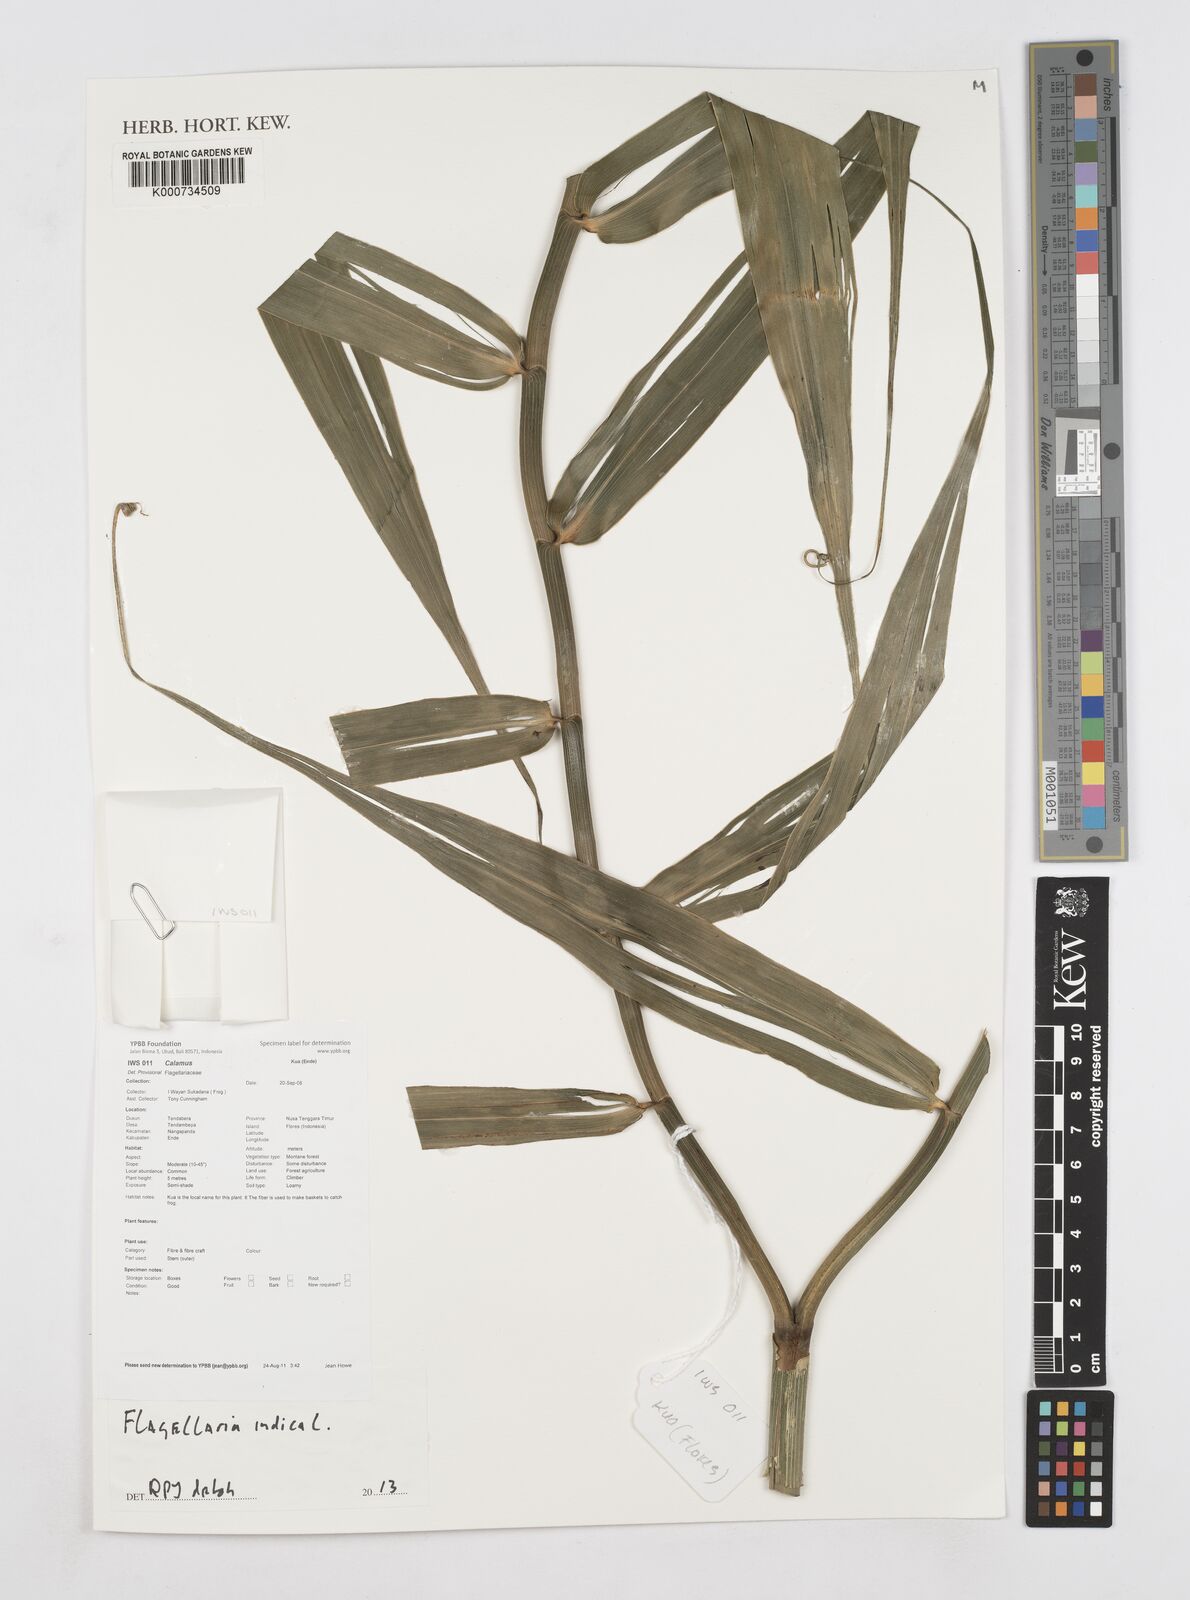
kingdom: Plantae
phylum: Tracheophyta
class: Liliopsida
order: Poales
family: Flagellariaceae
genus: Flagellaria
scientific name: Flagellaria indica
